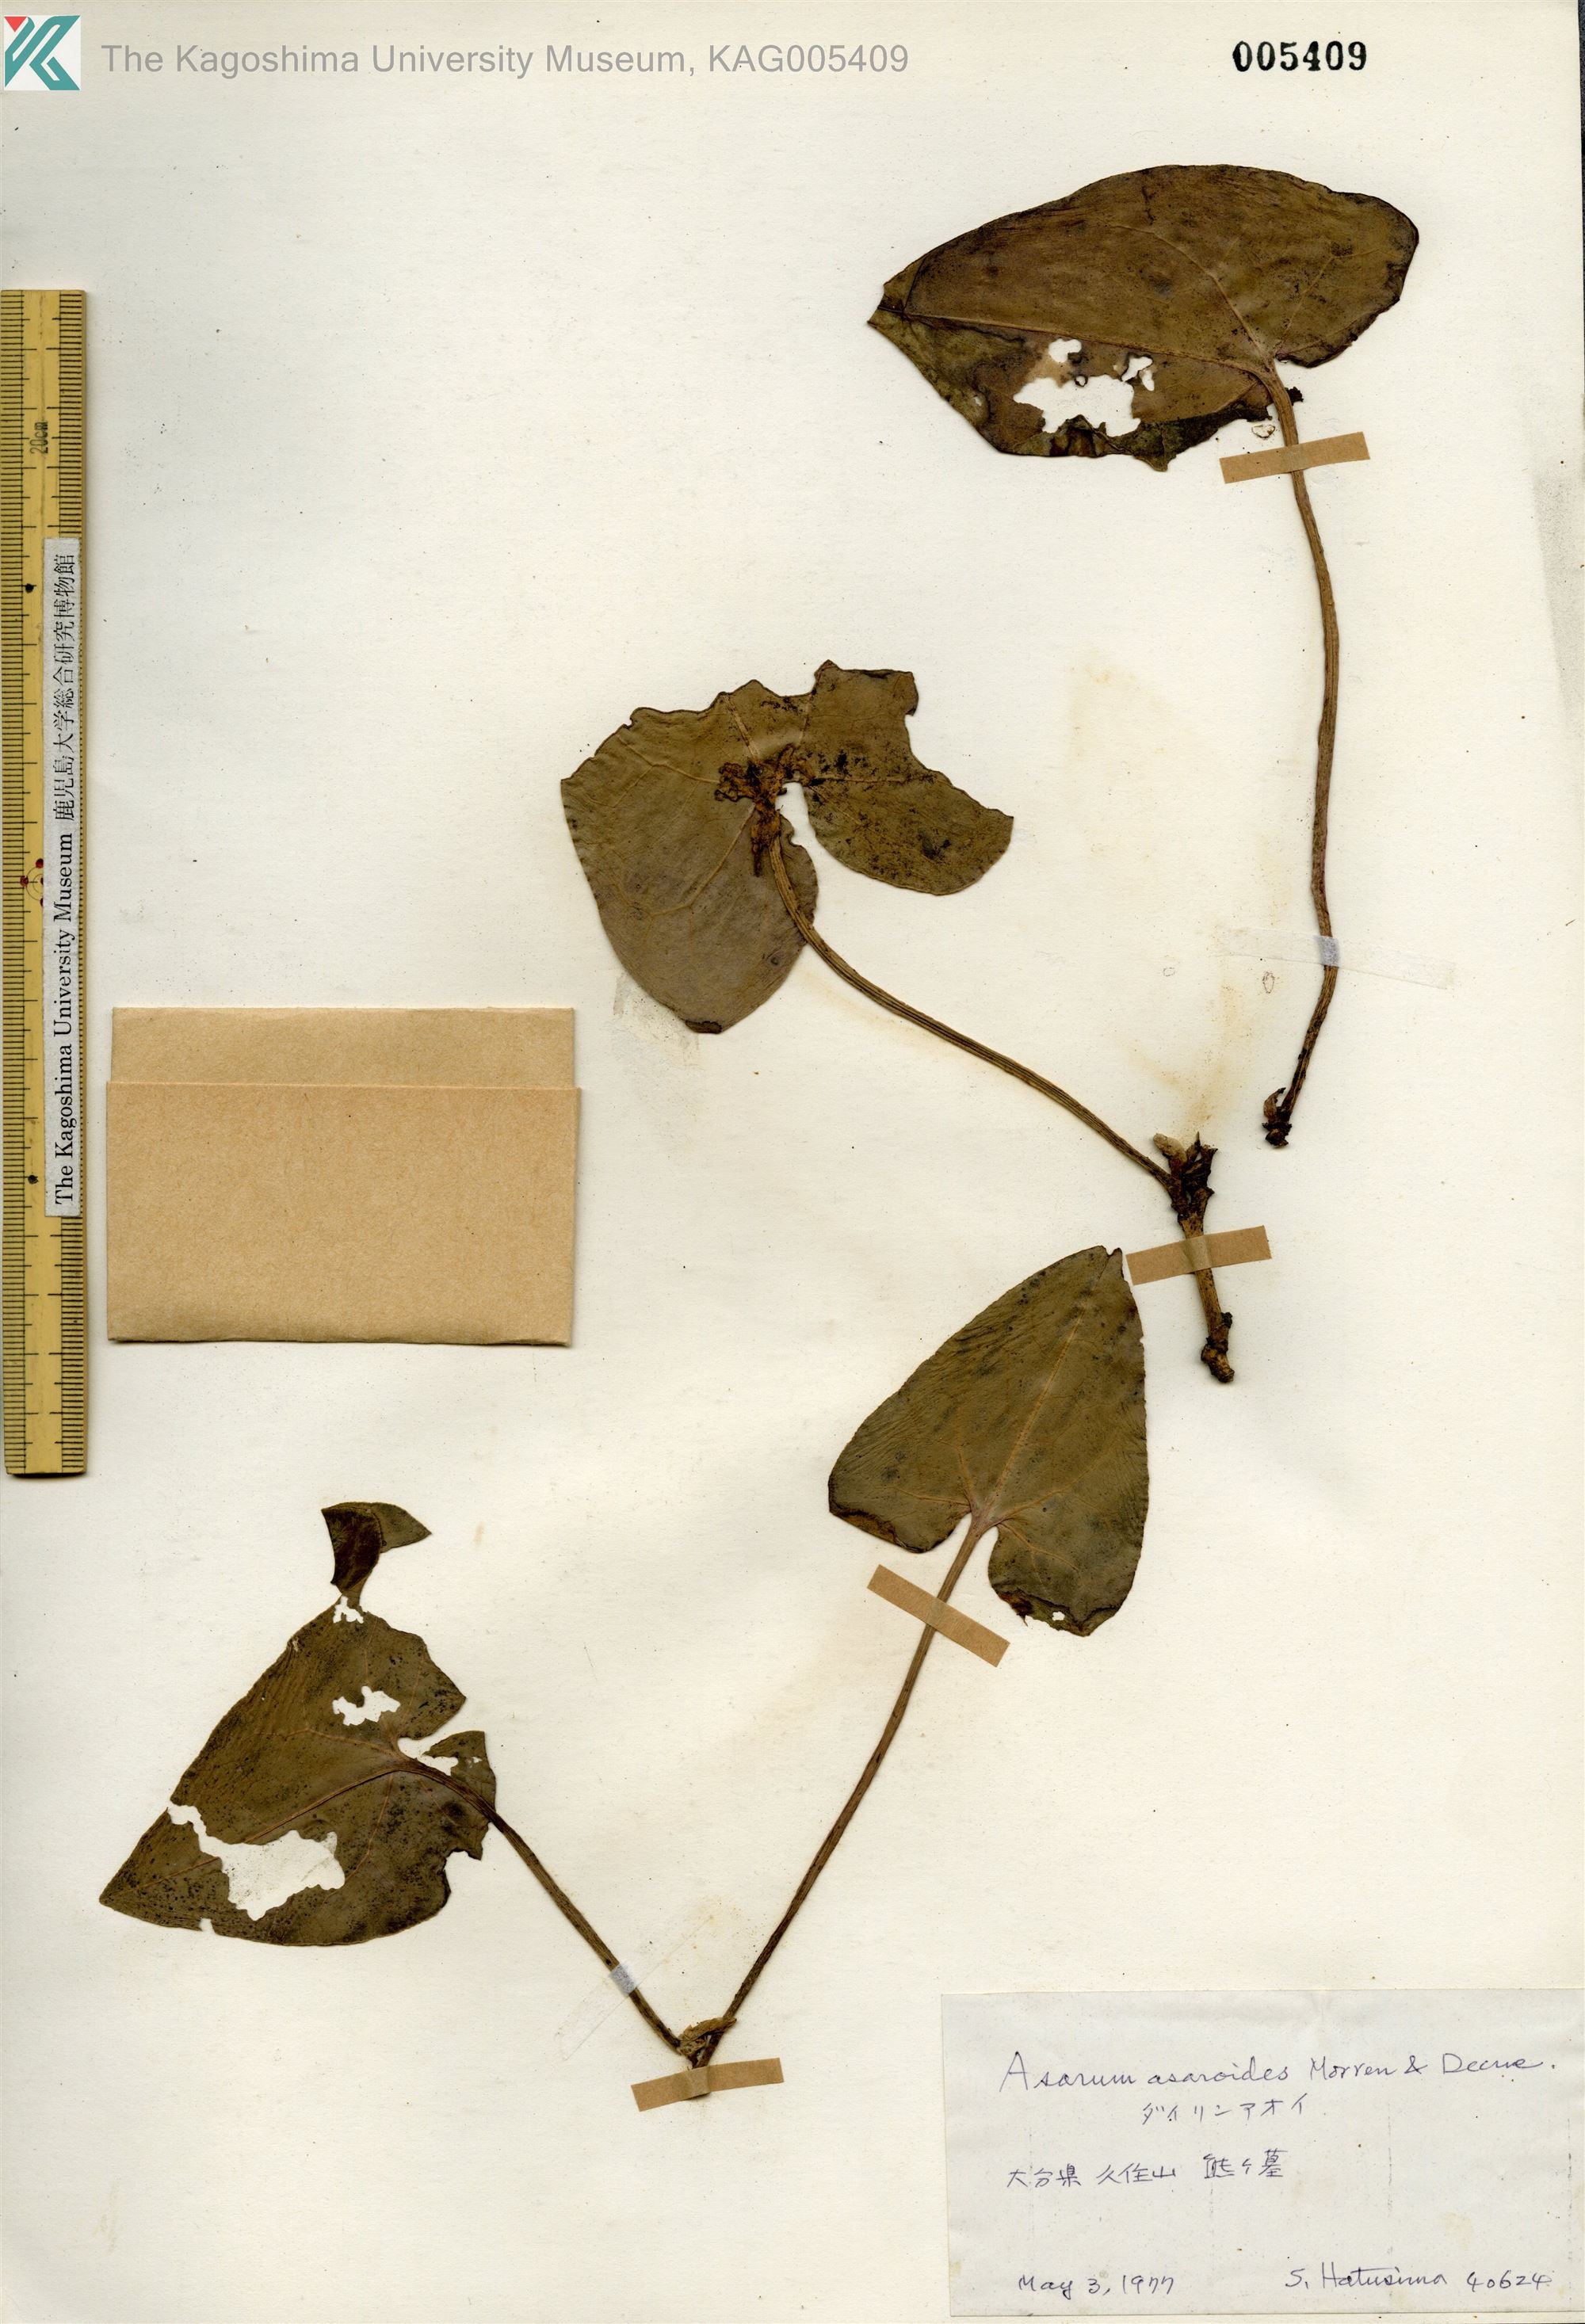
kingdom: Plantae
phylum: Tracheophyta
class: Magnoliopsida
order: Piperales
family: Aristolochiaceae
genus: Asarum
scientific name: Asarum asaroides
